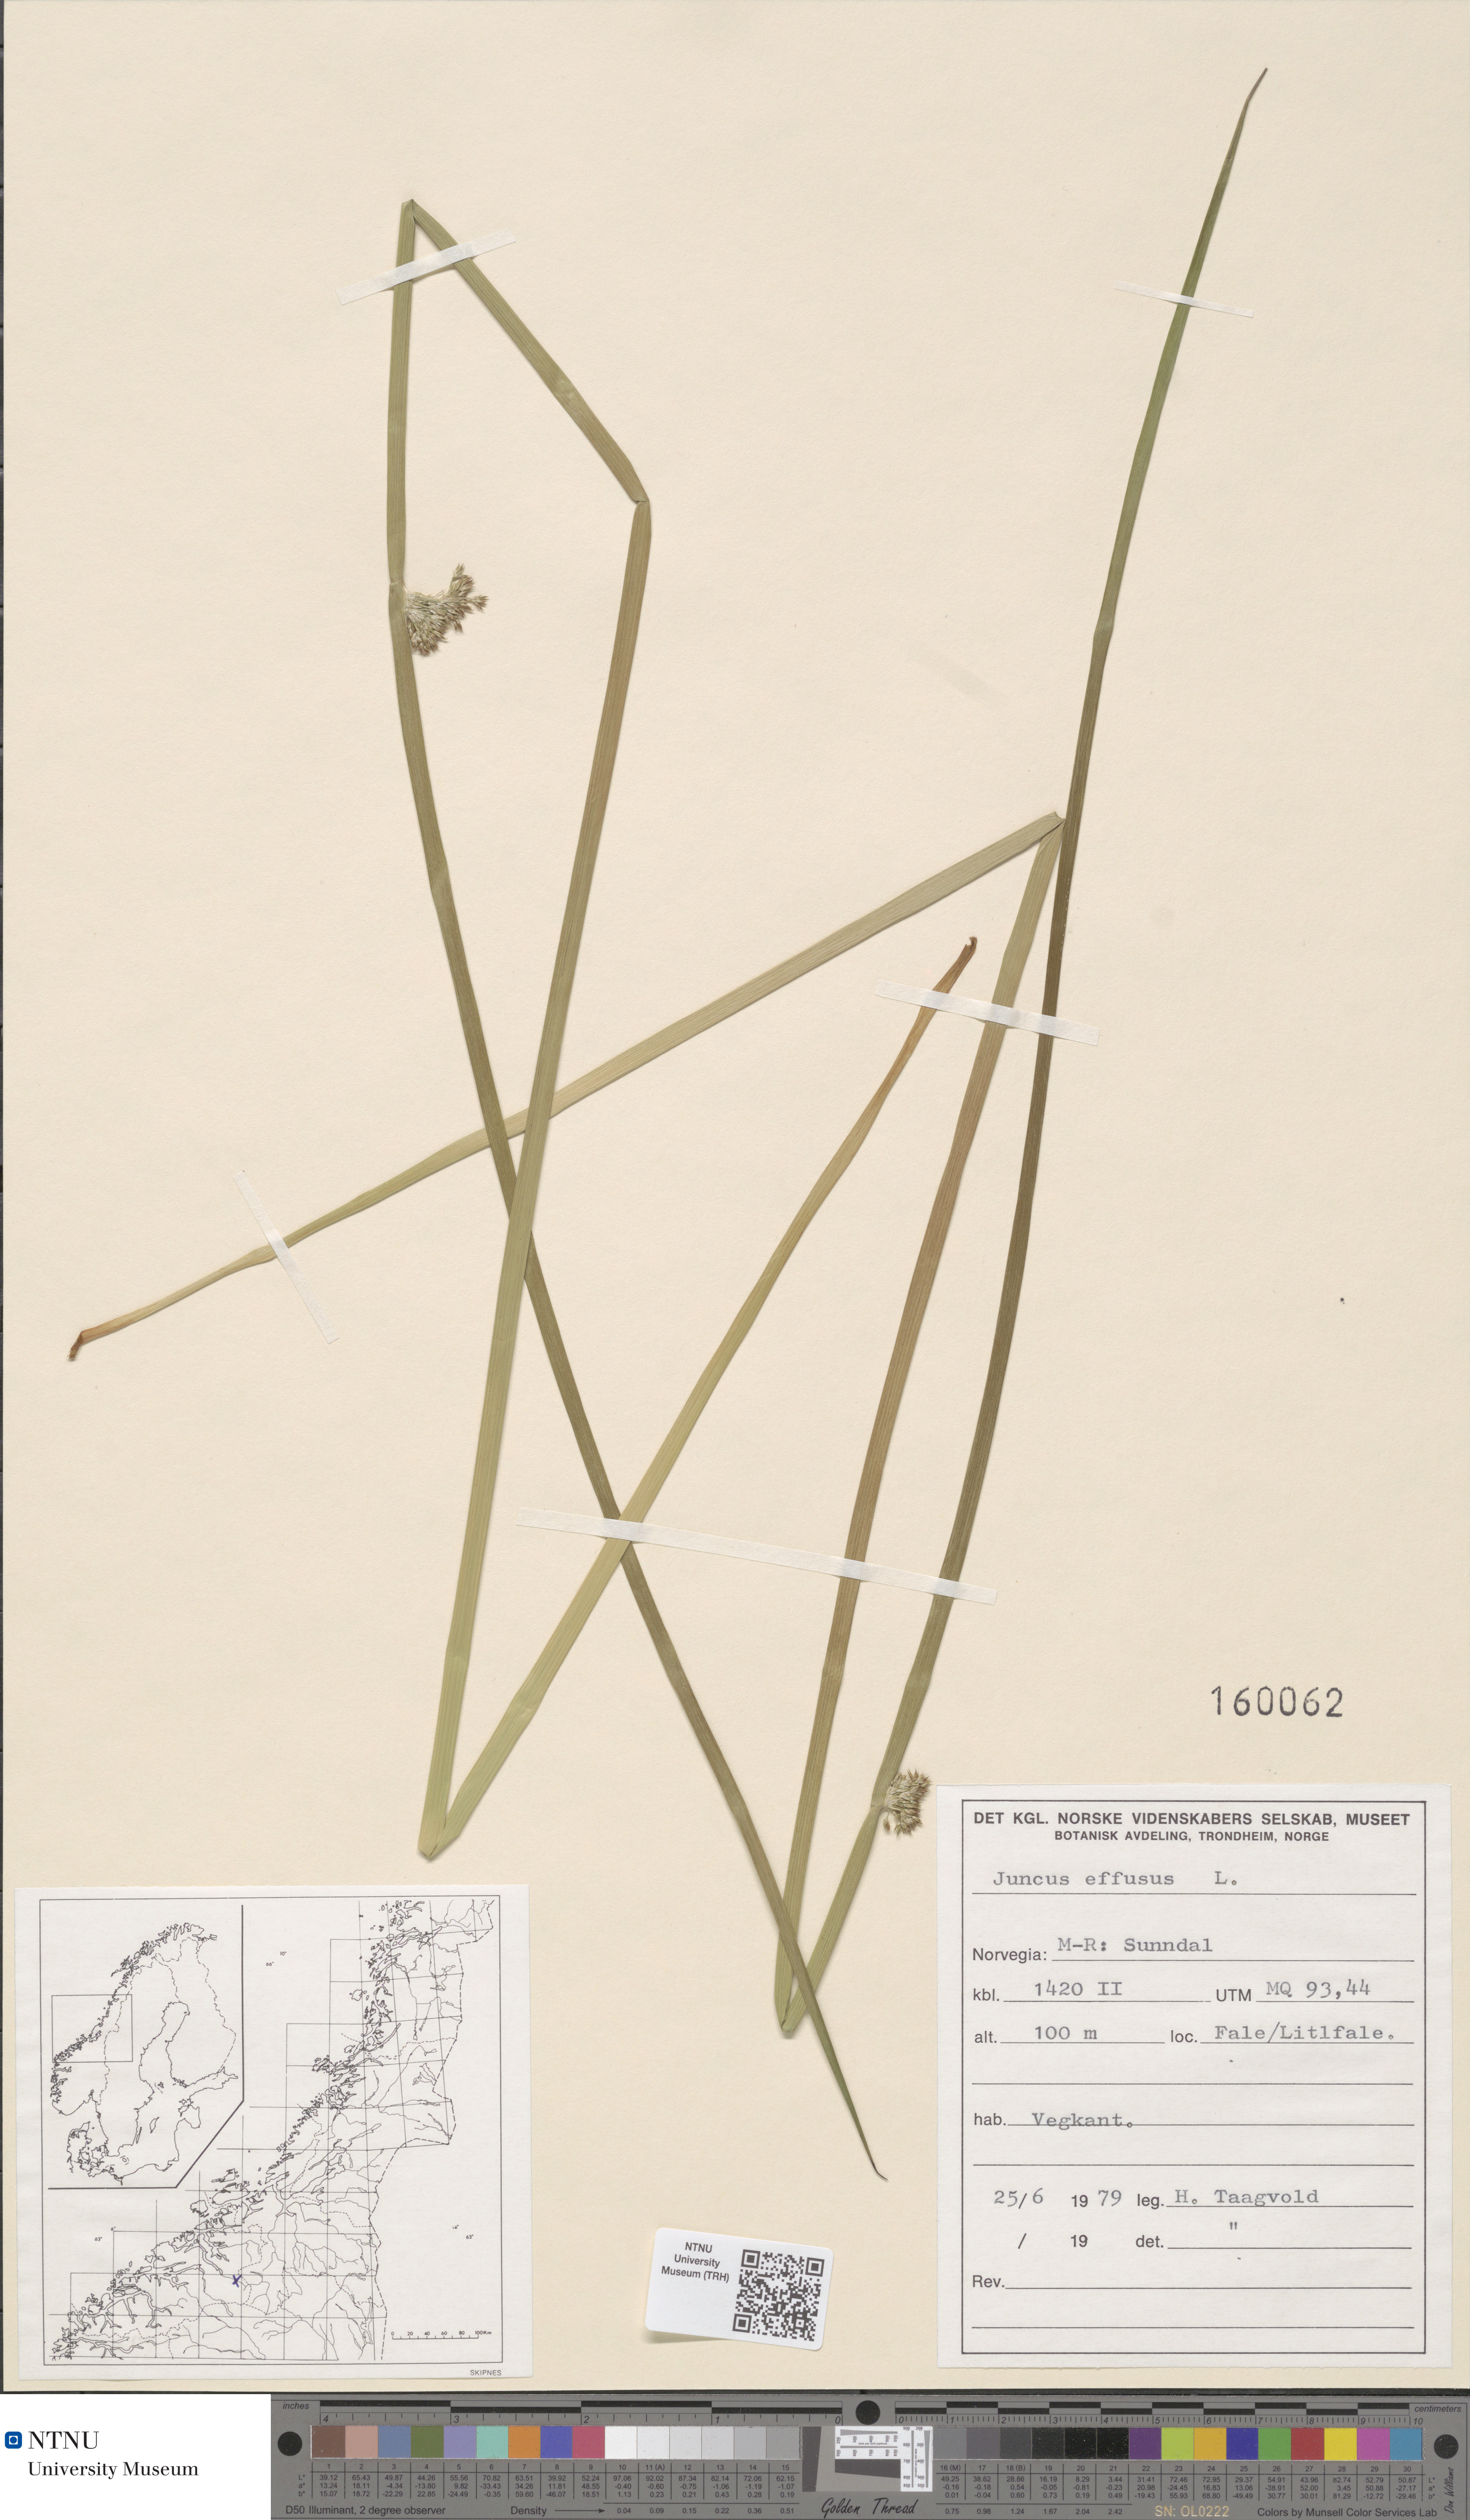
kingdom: Plantae
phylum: Tracheophyta
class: Liliopsida
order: Poales
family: Juncaceae
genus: Juncus
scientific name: Juncus effusus
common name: Soft rush
